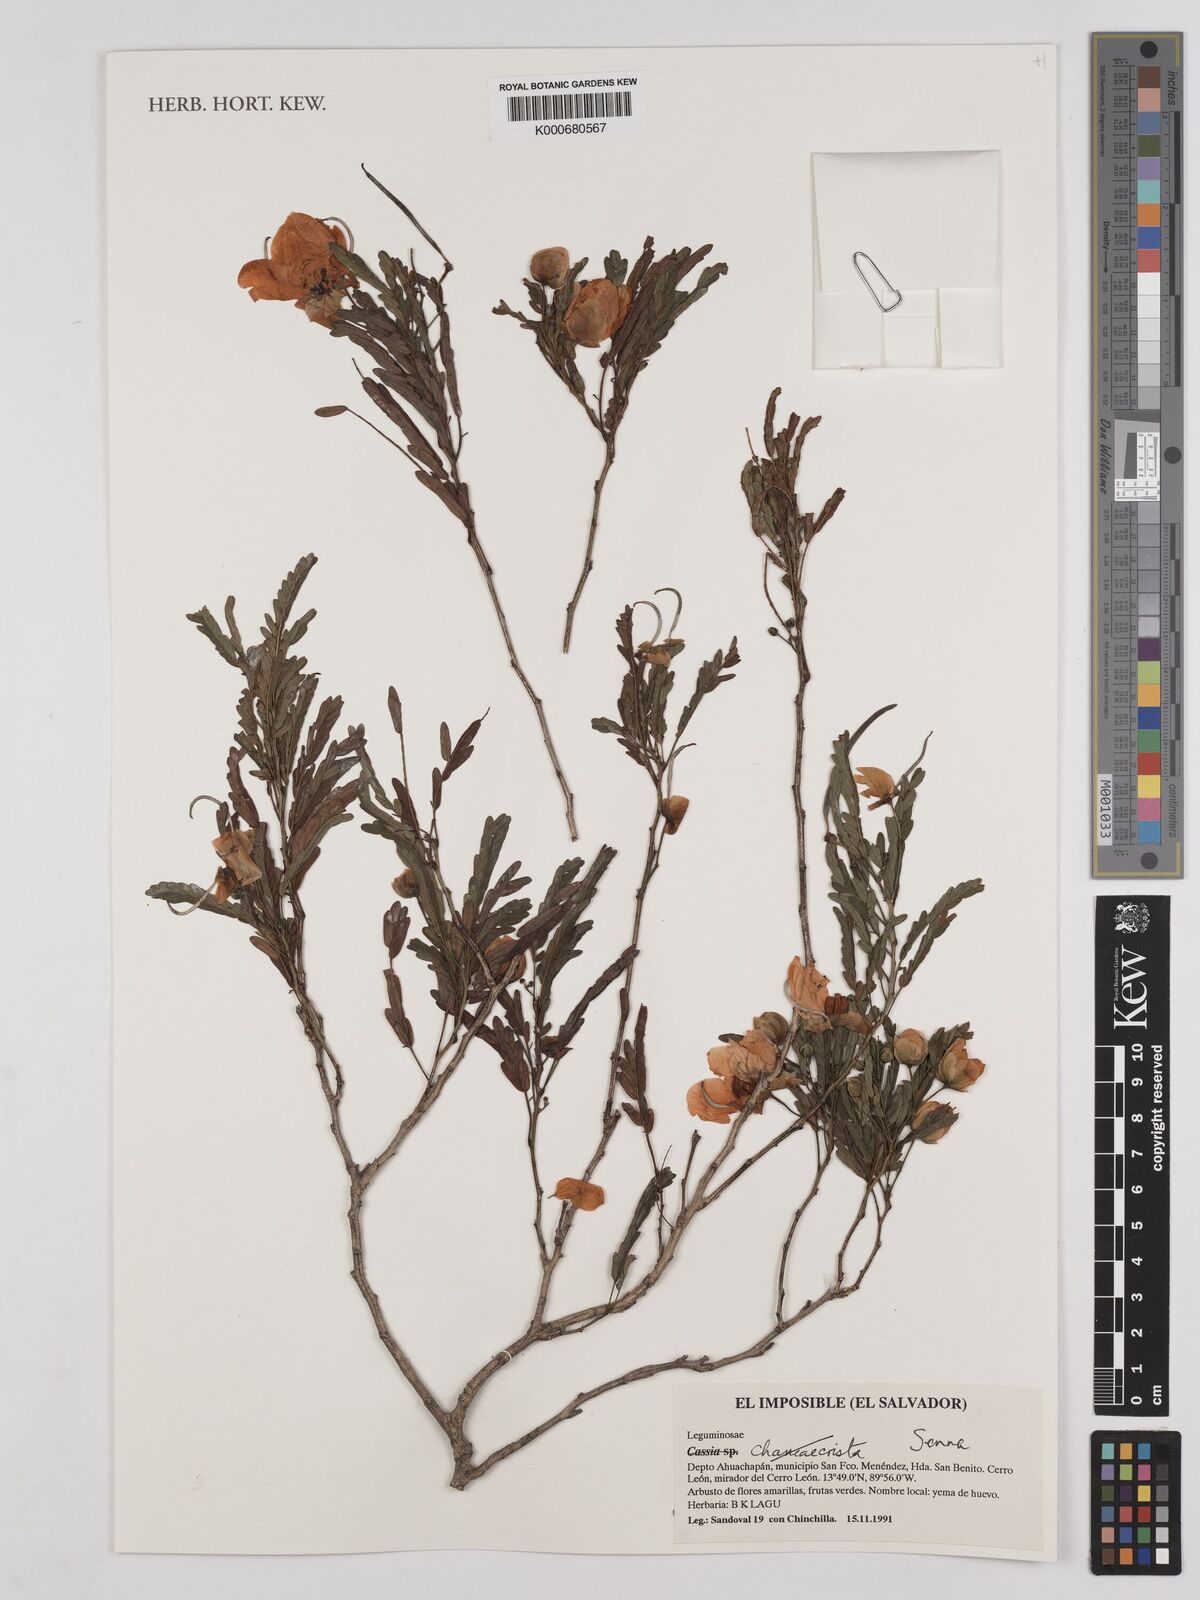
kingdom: Plantae
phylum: Tracheophyta
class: Magnoliopsida
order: Fabales
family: Fabaceae
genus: Chamaecrista
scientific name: Chamaecrista
